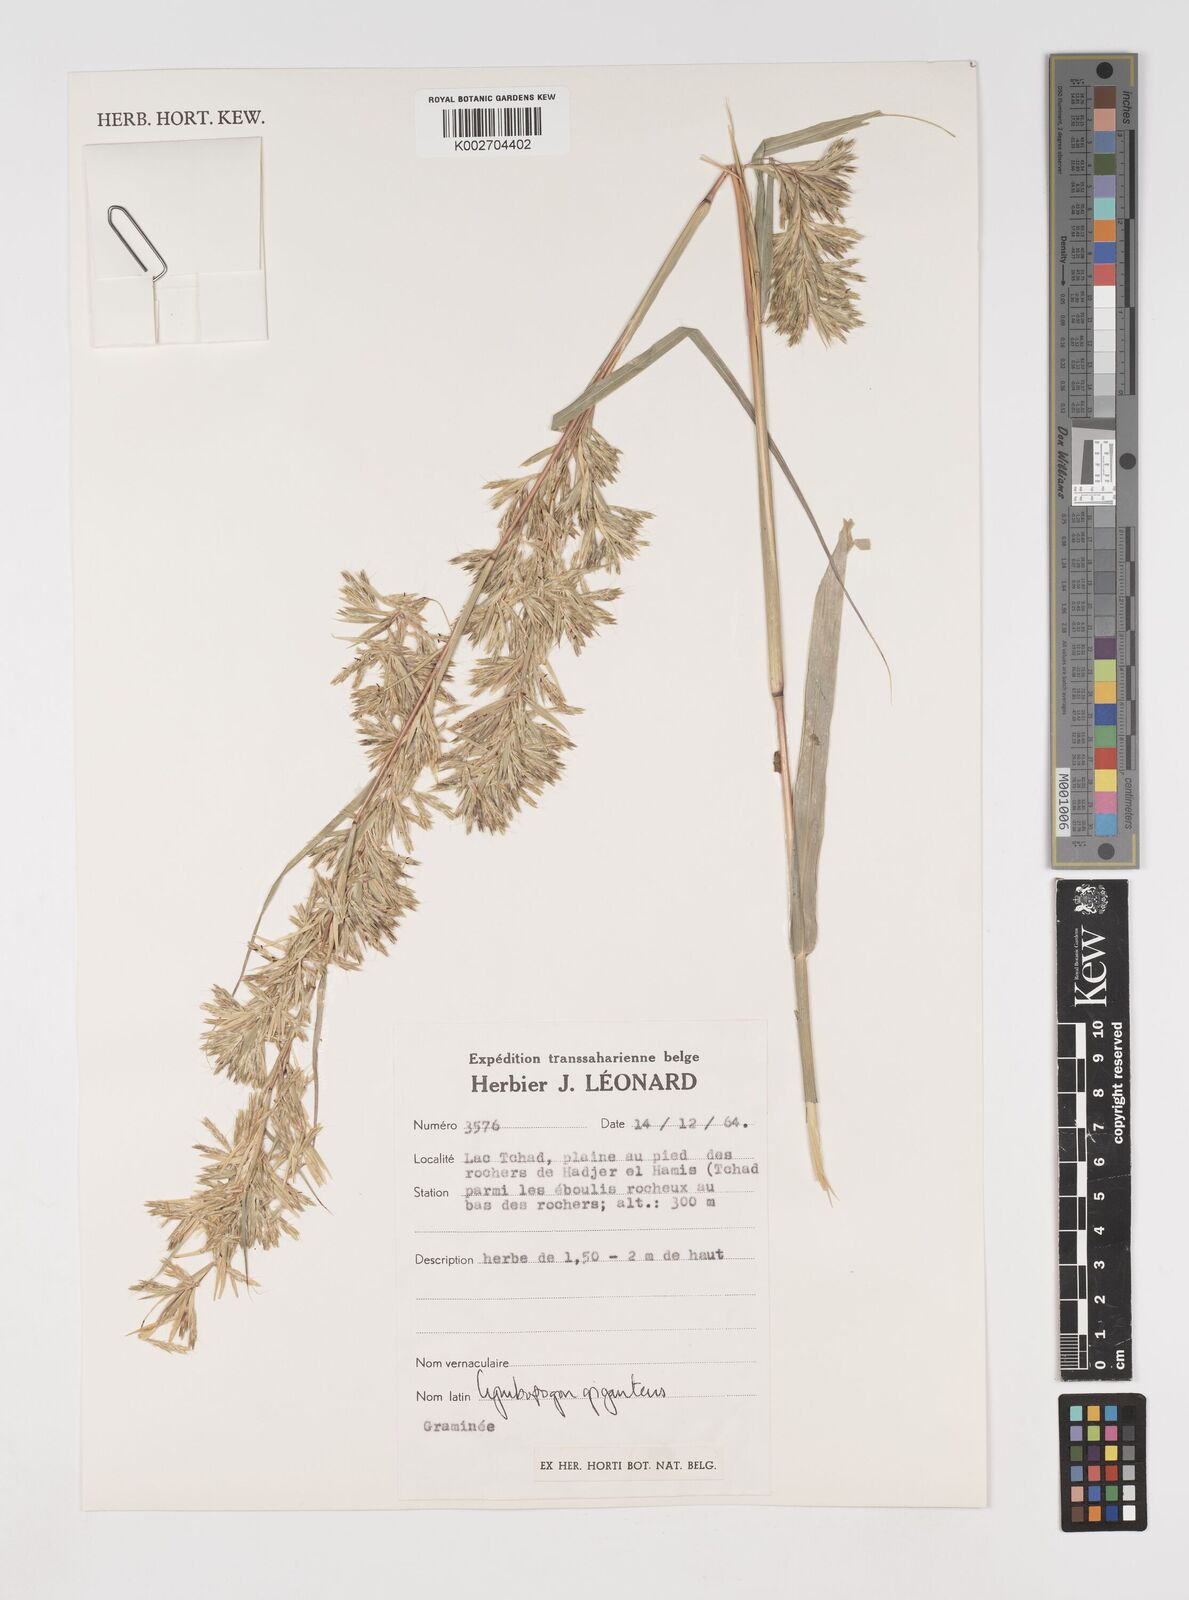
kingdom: Plantae
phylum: Tracheophyta
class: Liliopsida
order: Poales
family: Poaceae
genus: Cymbopogon
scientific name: Cymbopogon giganteus
